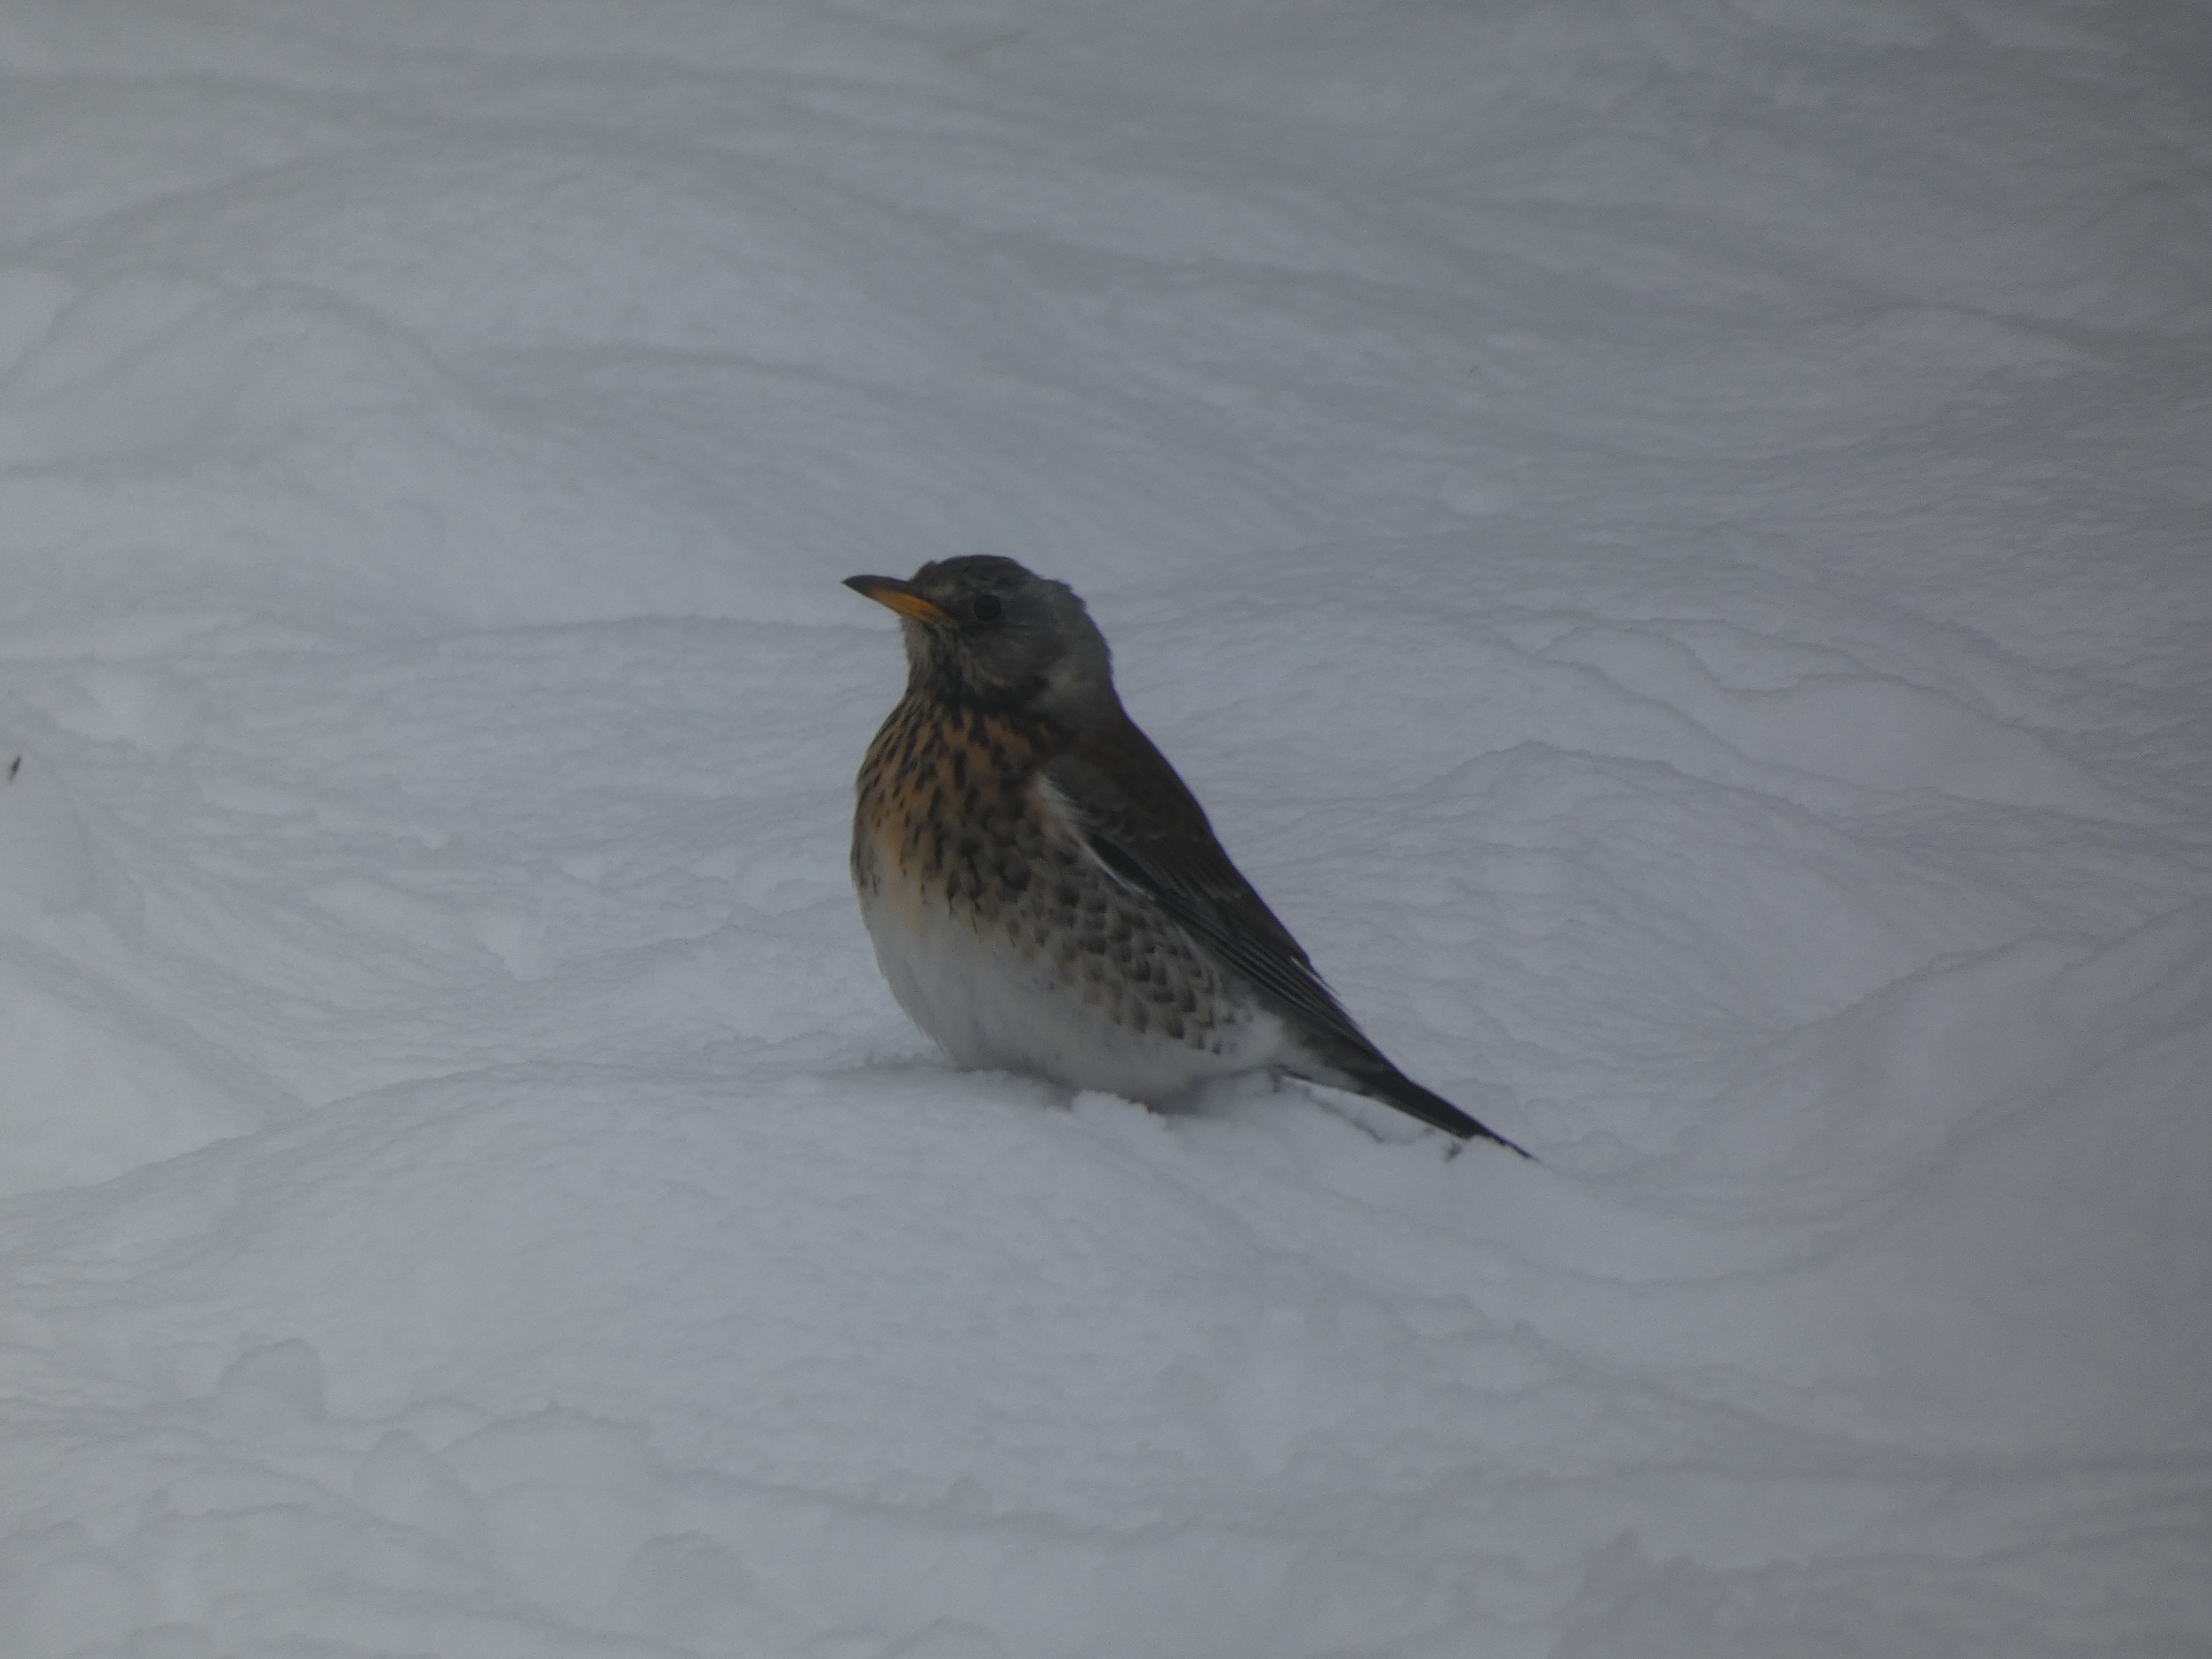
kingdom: Animalia
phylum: Chordata
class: Aves
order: Passeriformes
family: Turdidae
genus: Turdus
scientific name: Turdus pilaris
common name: Sjagger
